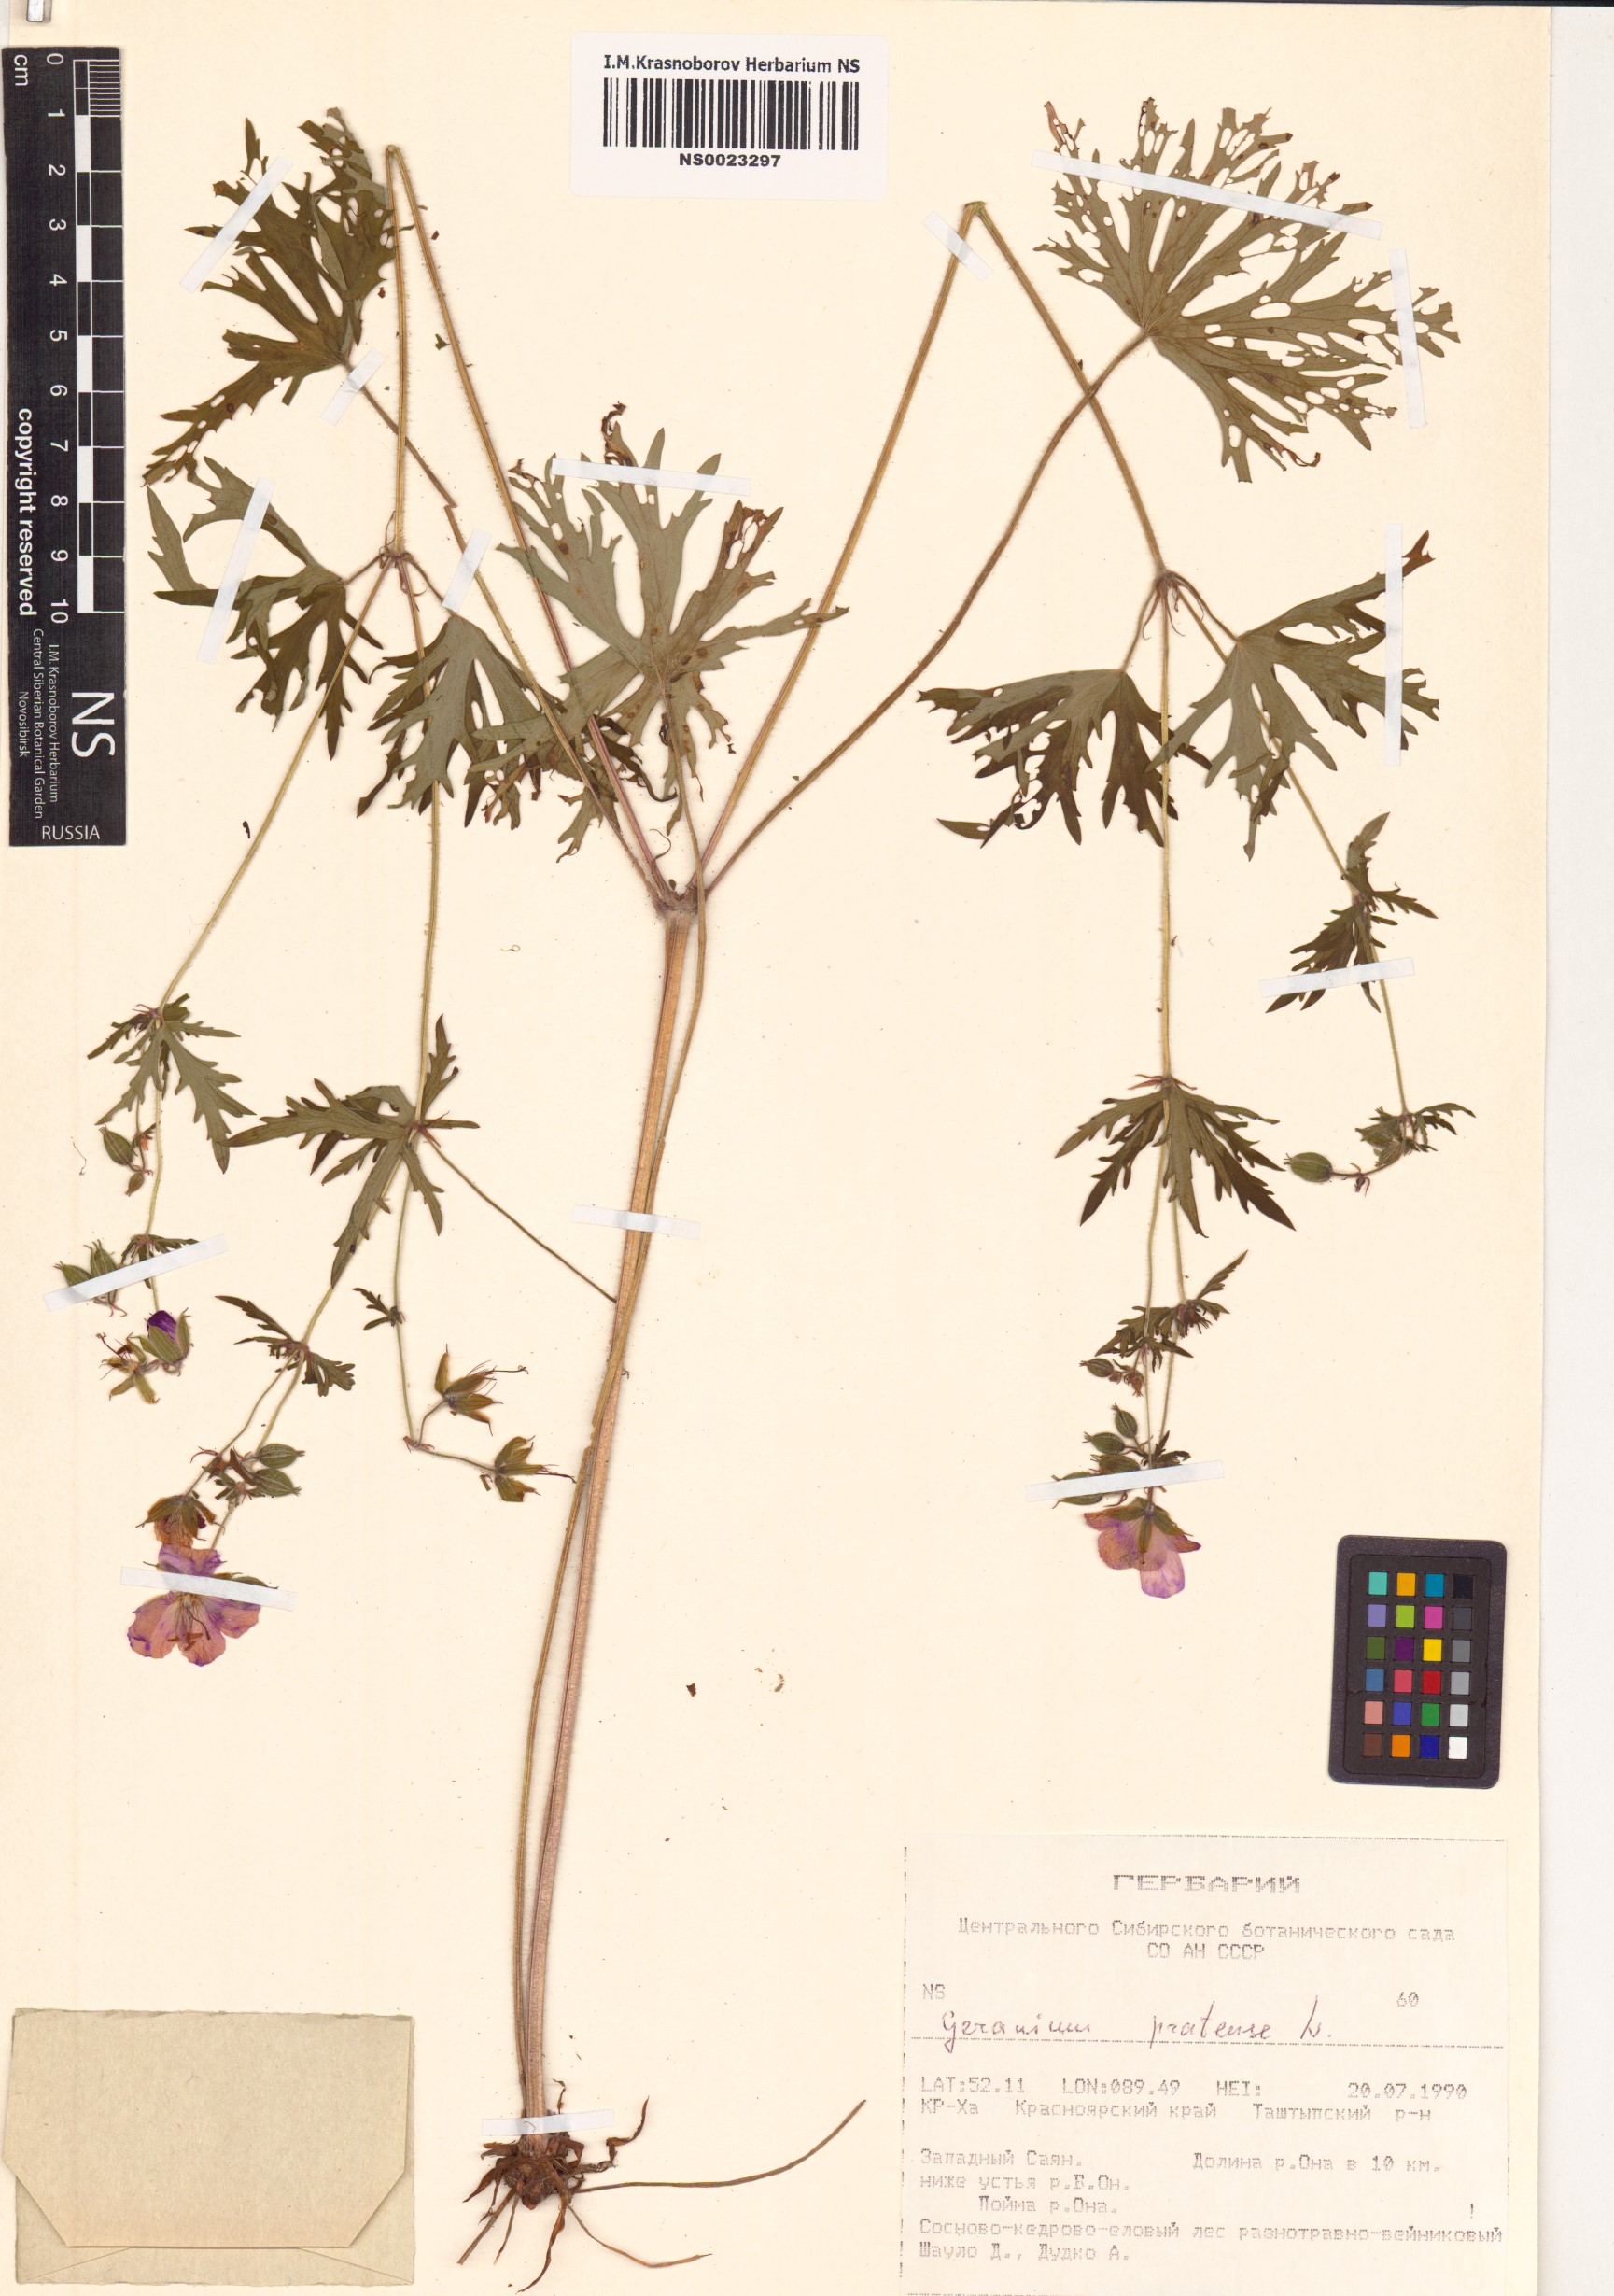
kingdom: Plantae
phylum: Tracheophyta
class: Magnoliopsida
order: Geraniales
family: Geraniaceae
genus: Geranium
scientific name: Geranium pratense
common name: Meadow crane's-bill
